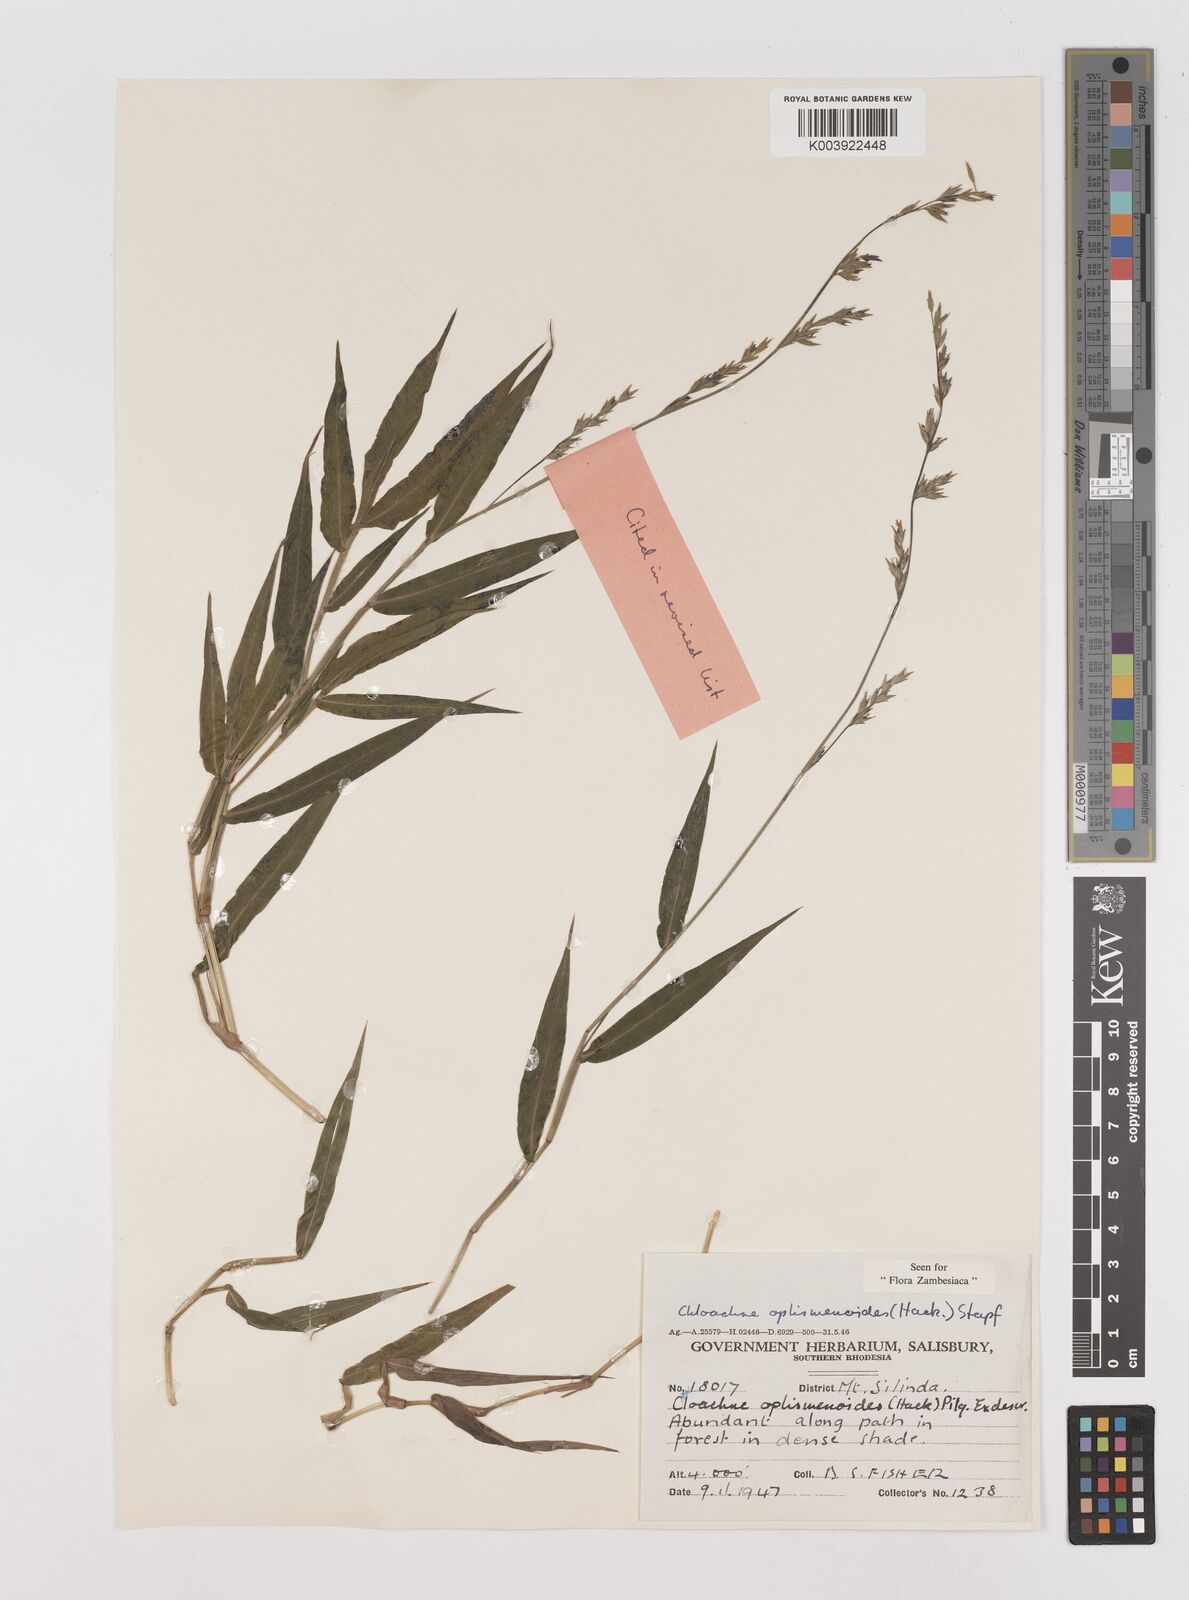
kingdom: Plantae
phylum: Tracheophyta
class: Liliopsida
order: Poales
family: Poaceae
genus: Poecilostachys
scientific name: Poecilostachys oplismenoides
